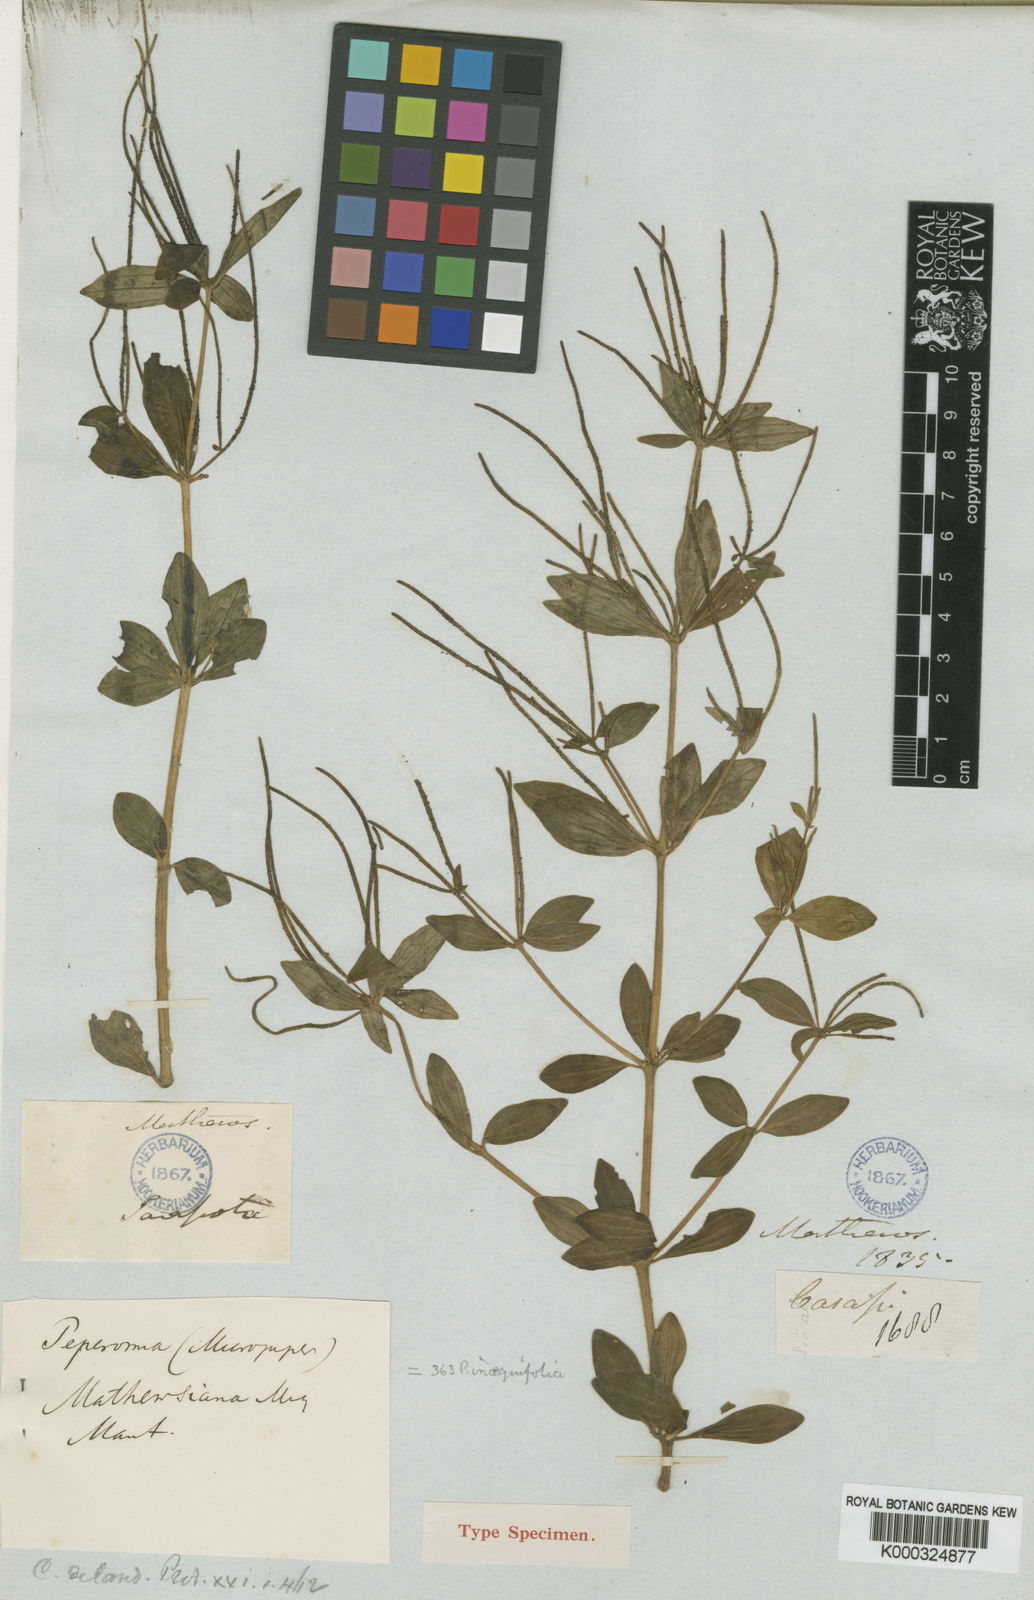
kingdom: Plantae
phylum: Tracheophyta
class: Magnoliopsida
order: Piperales
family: Piperaceae
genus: Peperomia
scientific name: Peperomia mathewsiana
